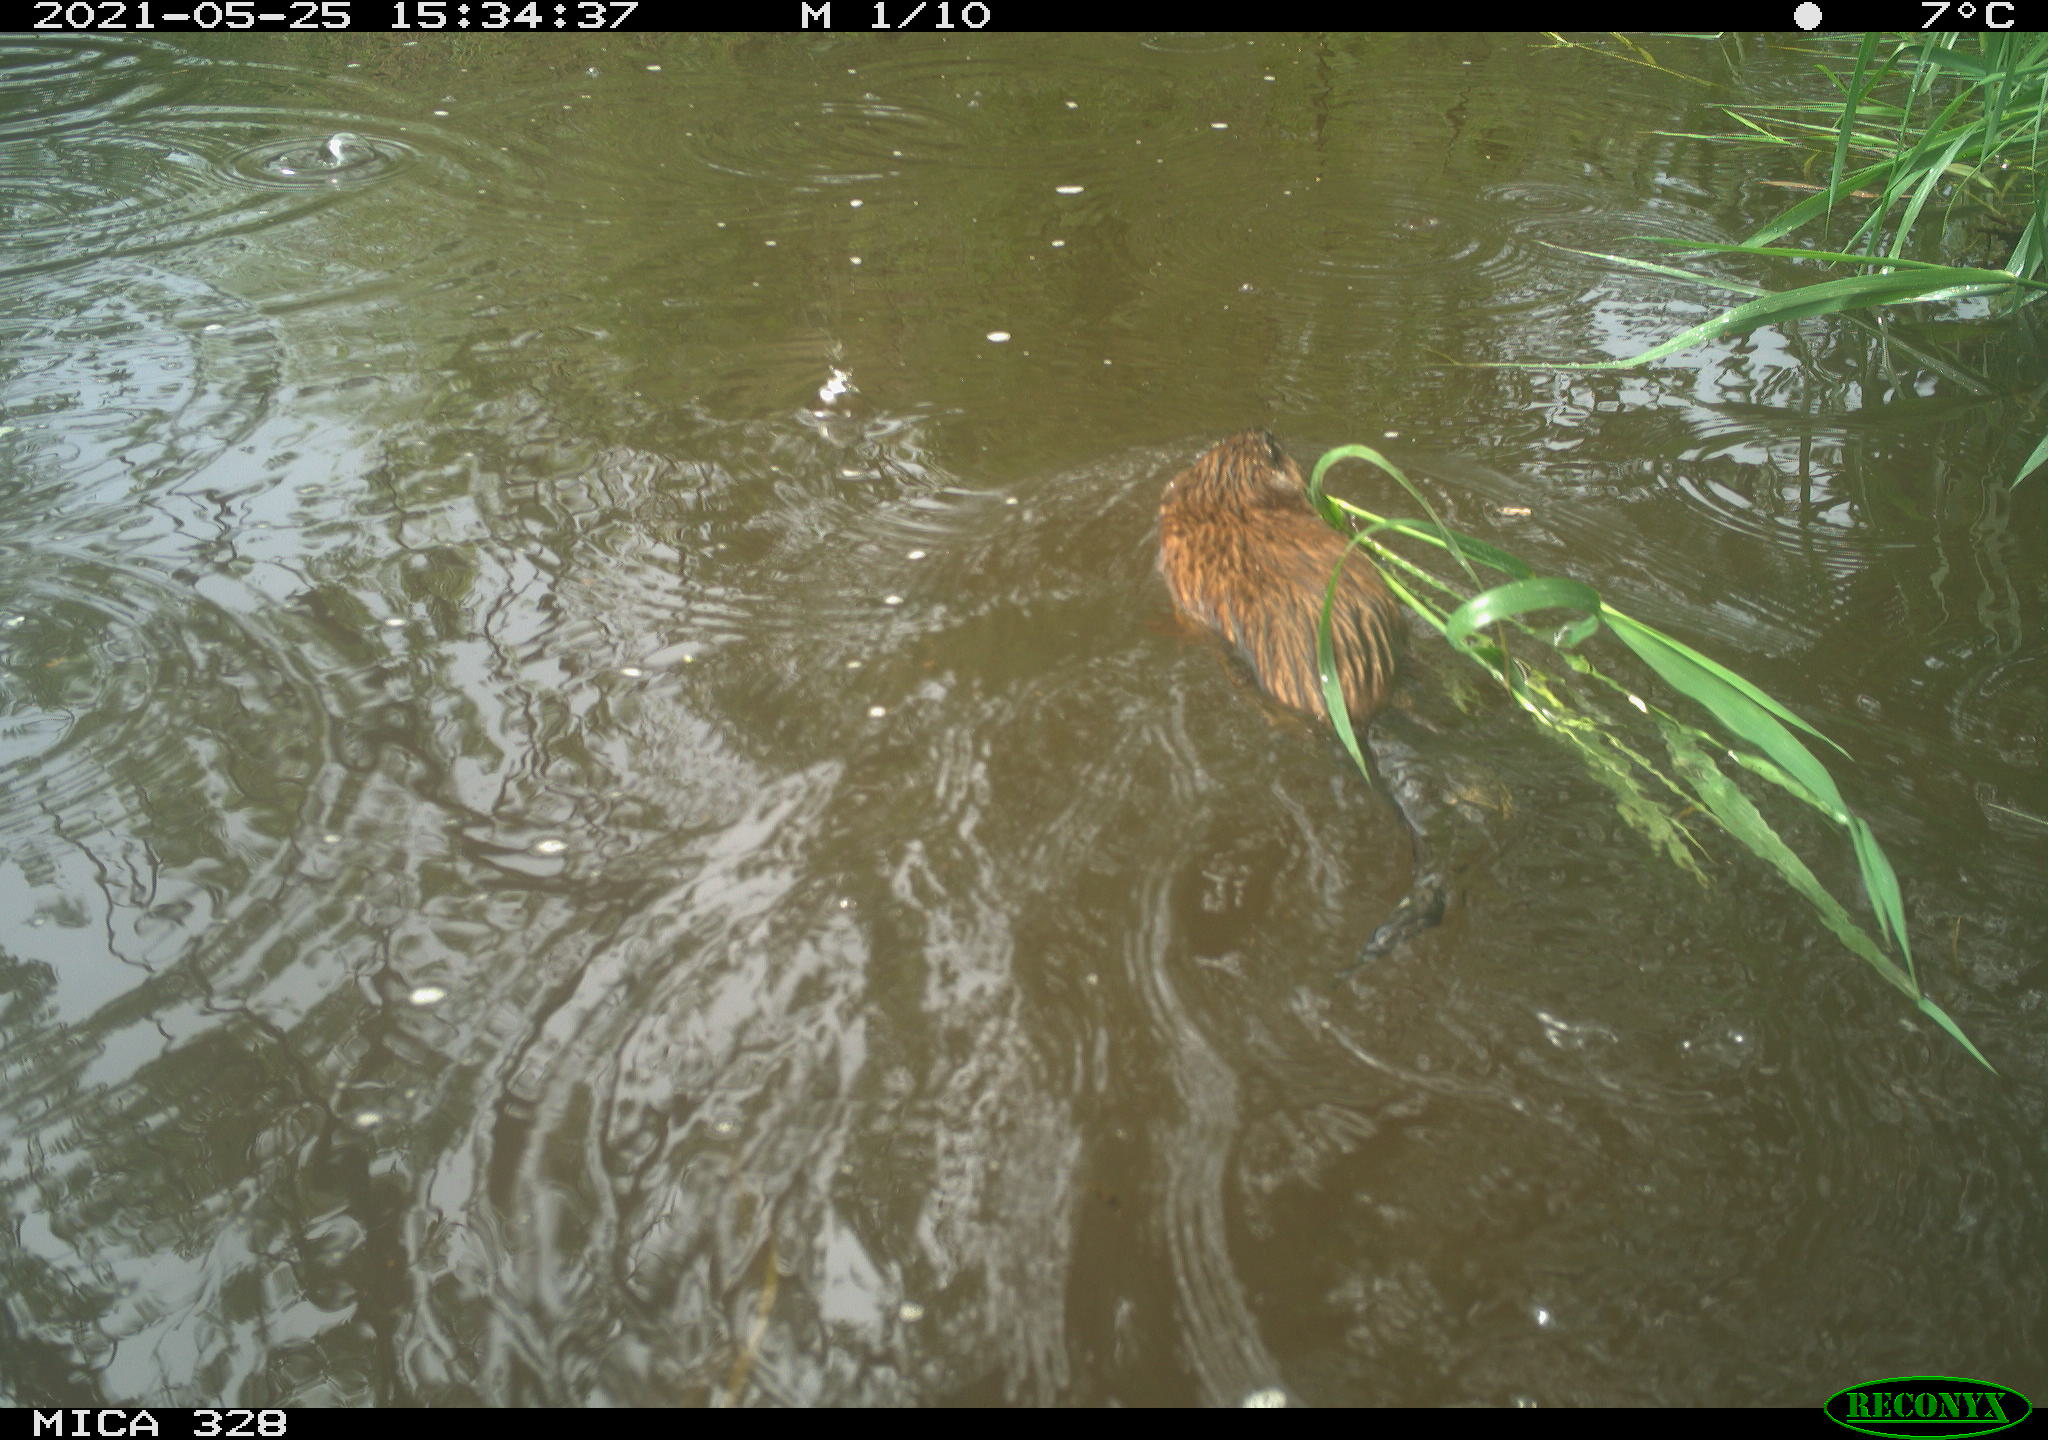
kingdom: Animalia
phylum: Chordata
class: Mammalia
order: Rodentia
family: Cricetidae
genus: Ondatra
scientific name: Ondatra zibethicus
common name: Muskrat
